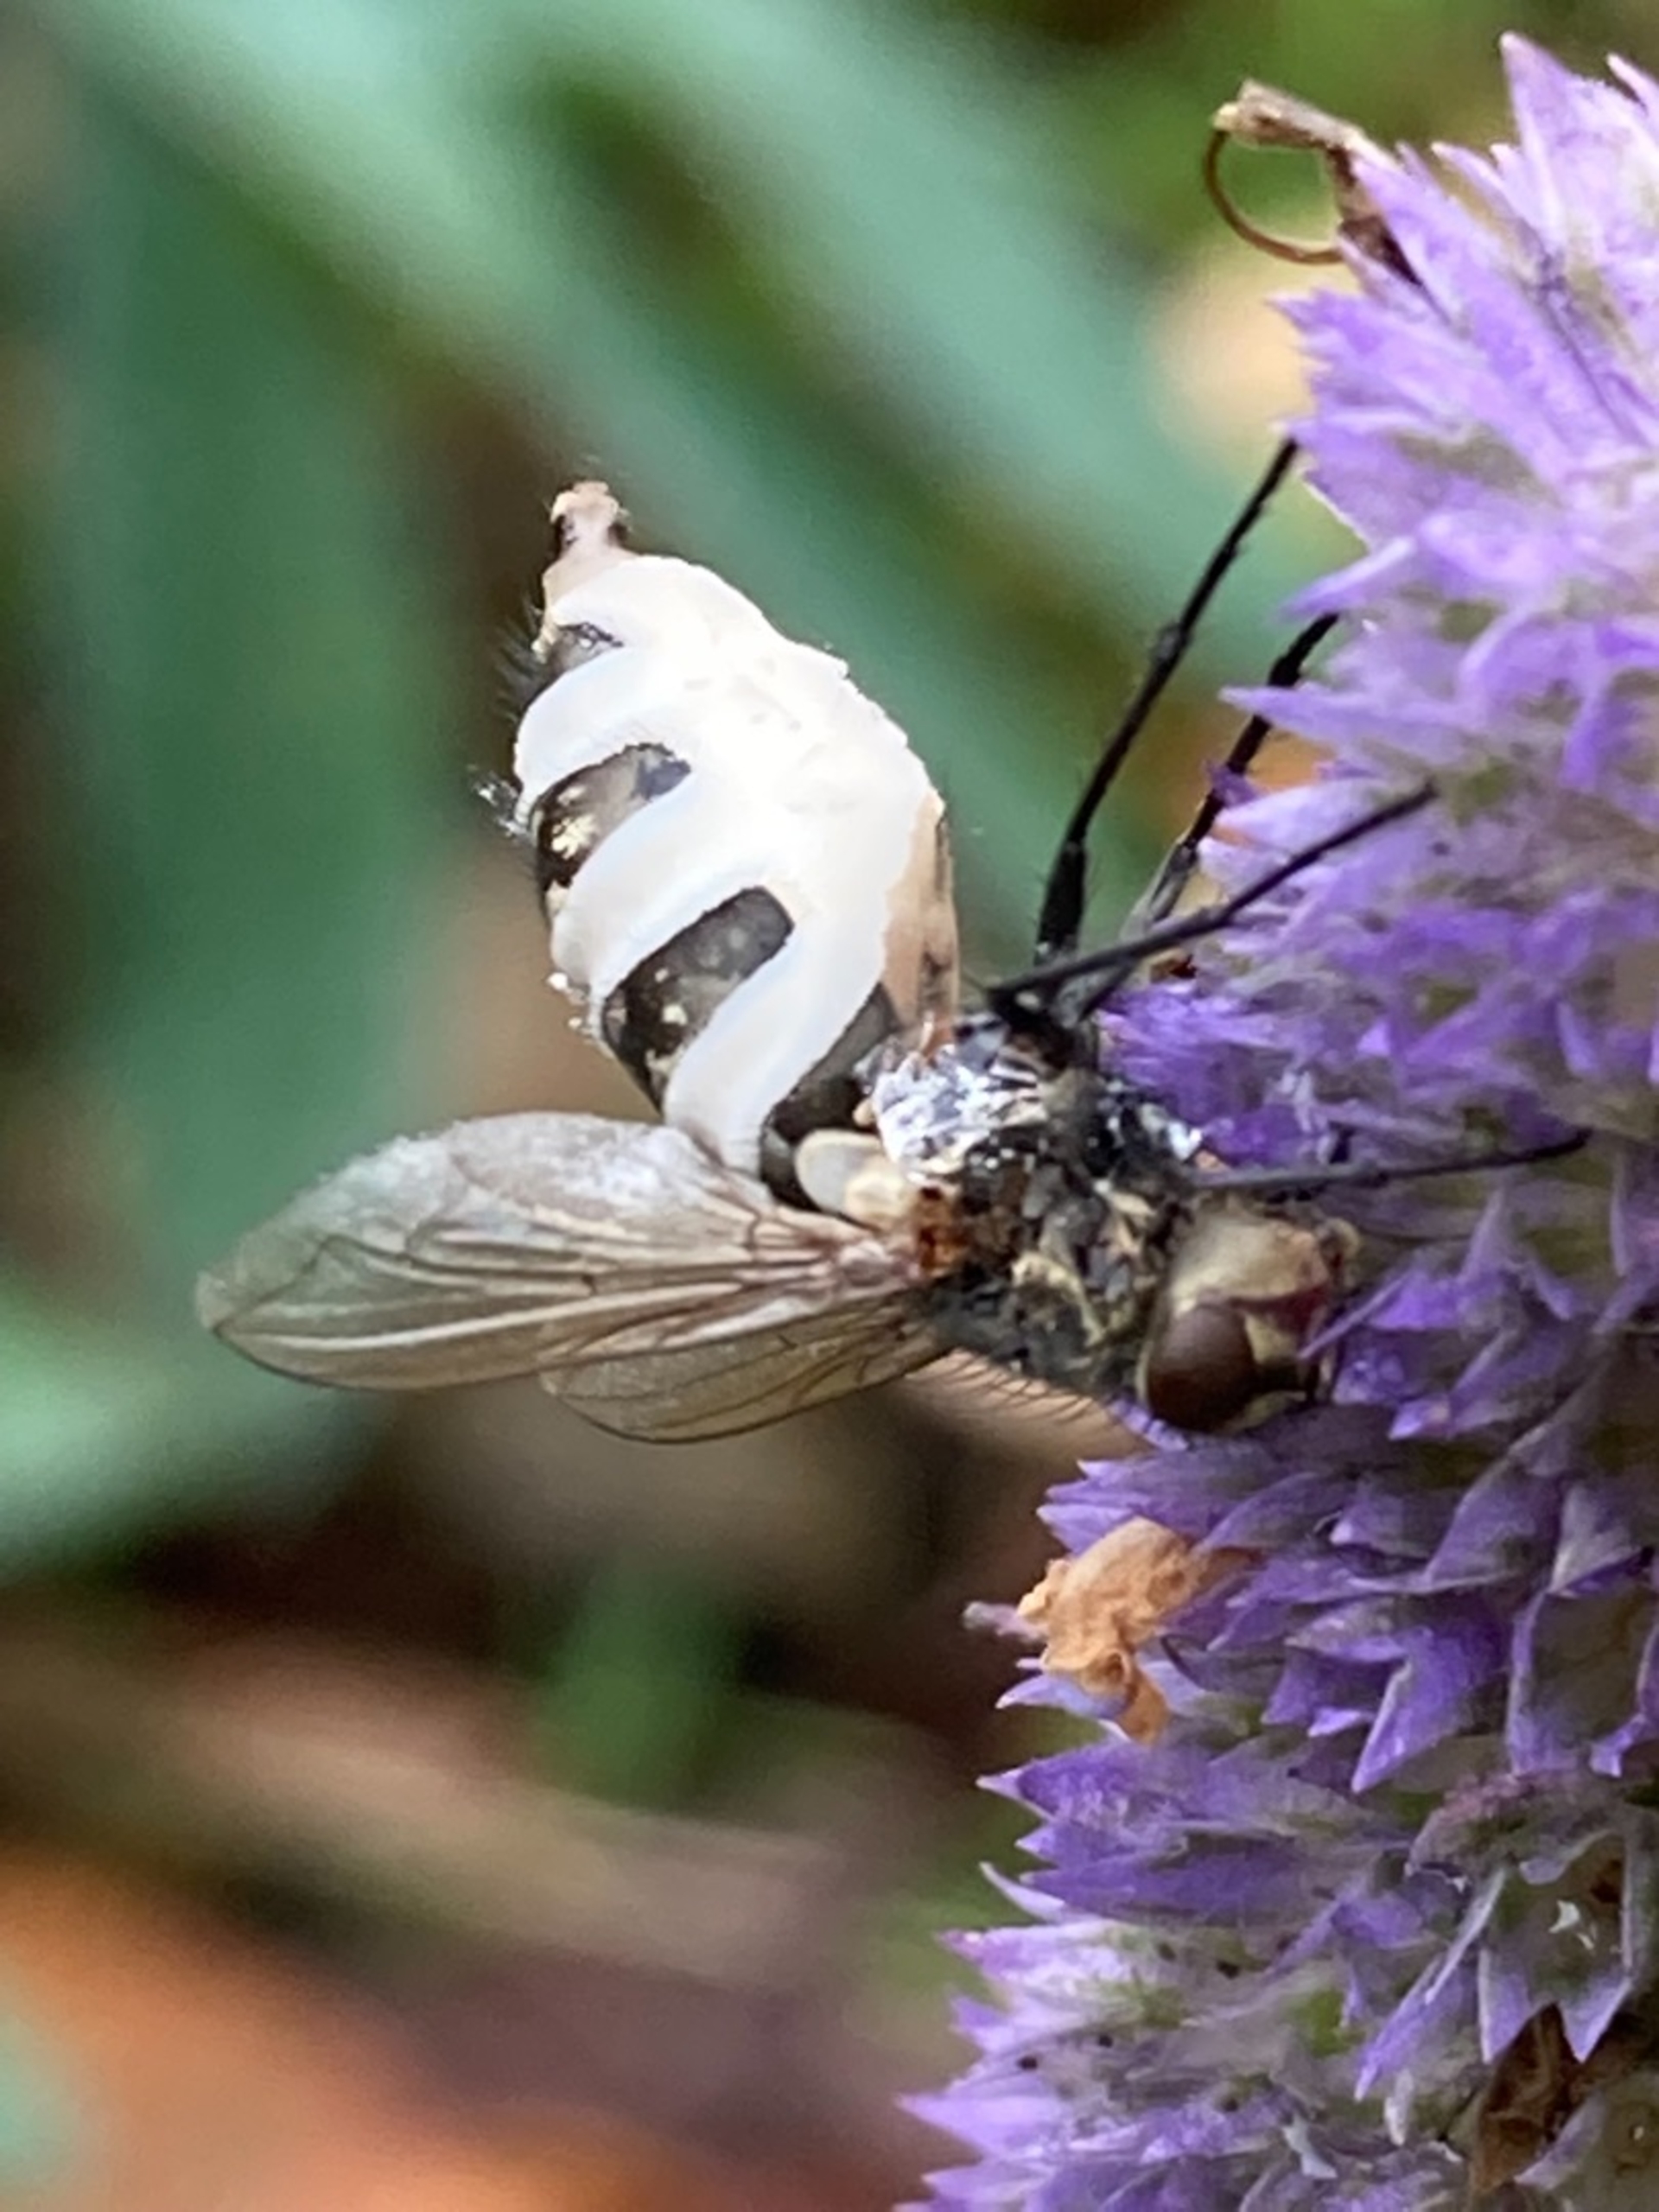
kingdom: Fungi
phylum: Entomophthoromycota
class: Entomophthoromycetes
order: Entomophthorales
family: Entomophthoraceae
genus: Entomophthora
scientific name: Entomophthora muscae
